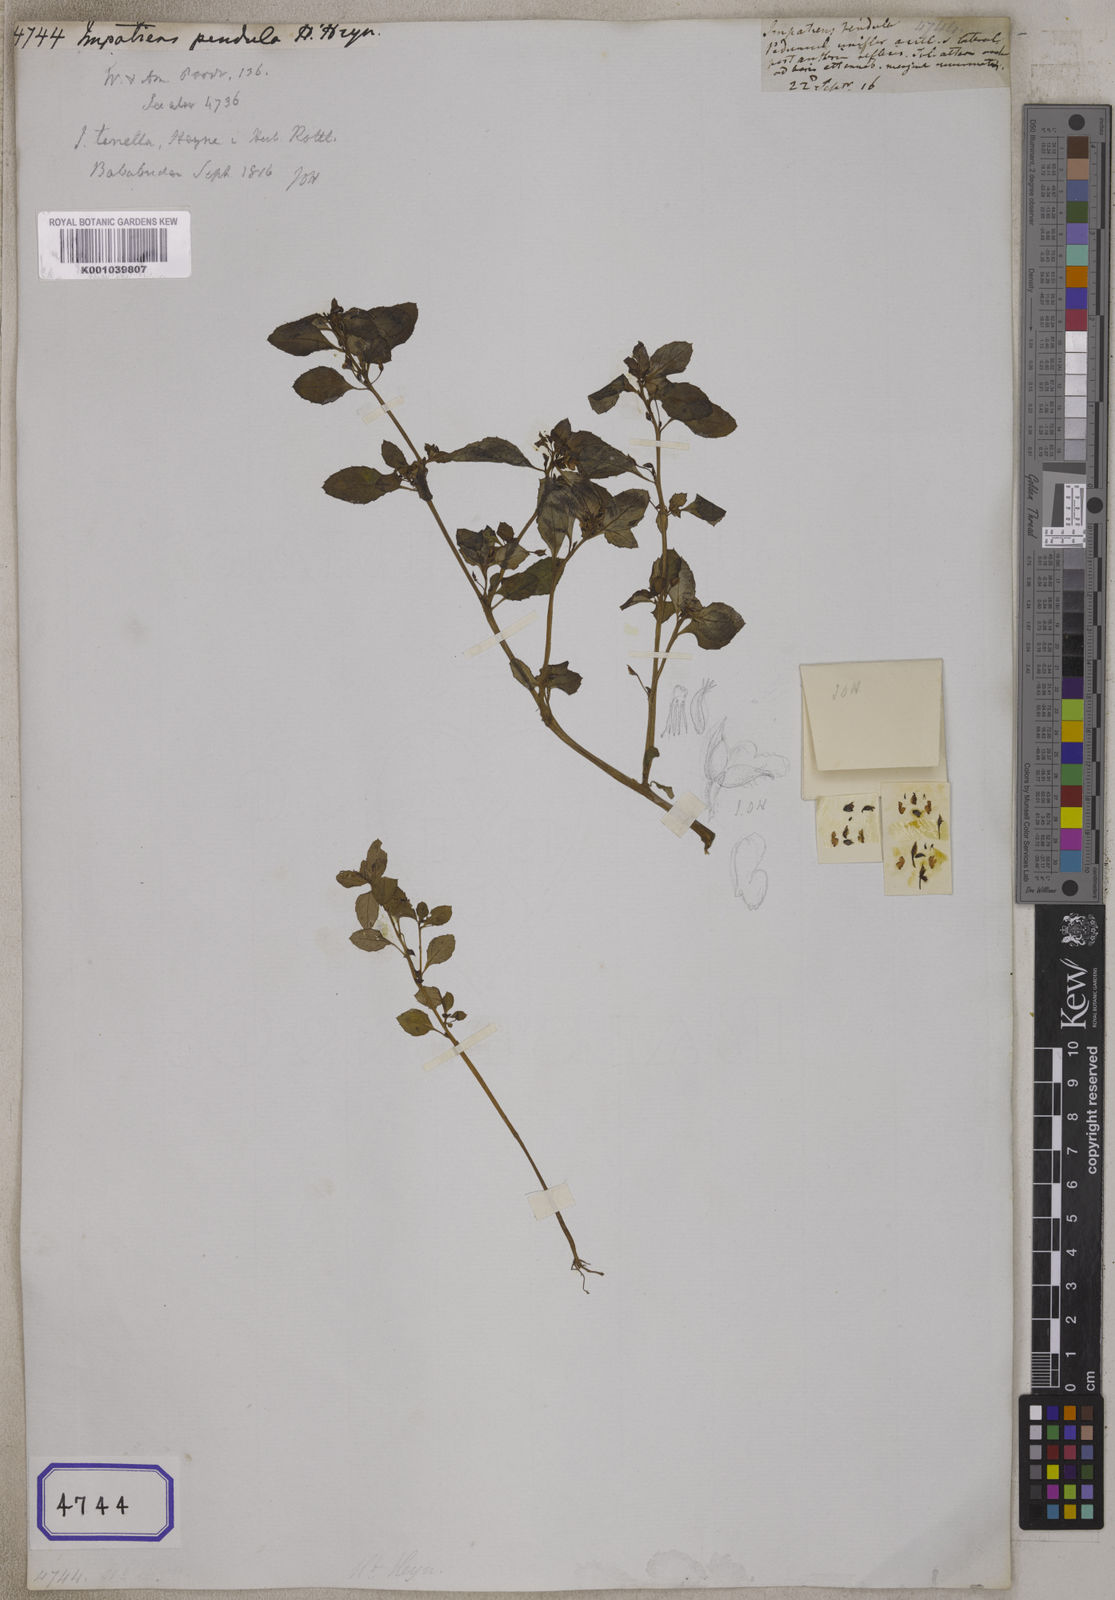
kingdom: Plantae
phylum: Tracheophyta
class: Magnoliopsida
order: Ericales
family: Balsaminaceae
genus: Impatiens
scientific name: Impatiens
